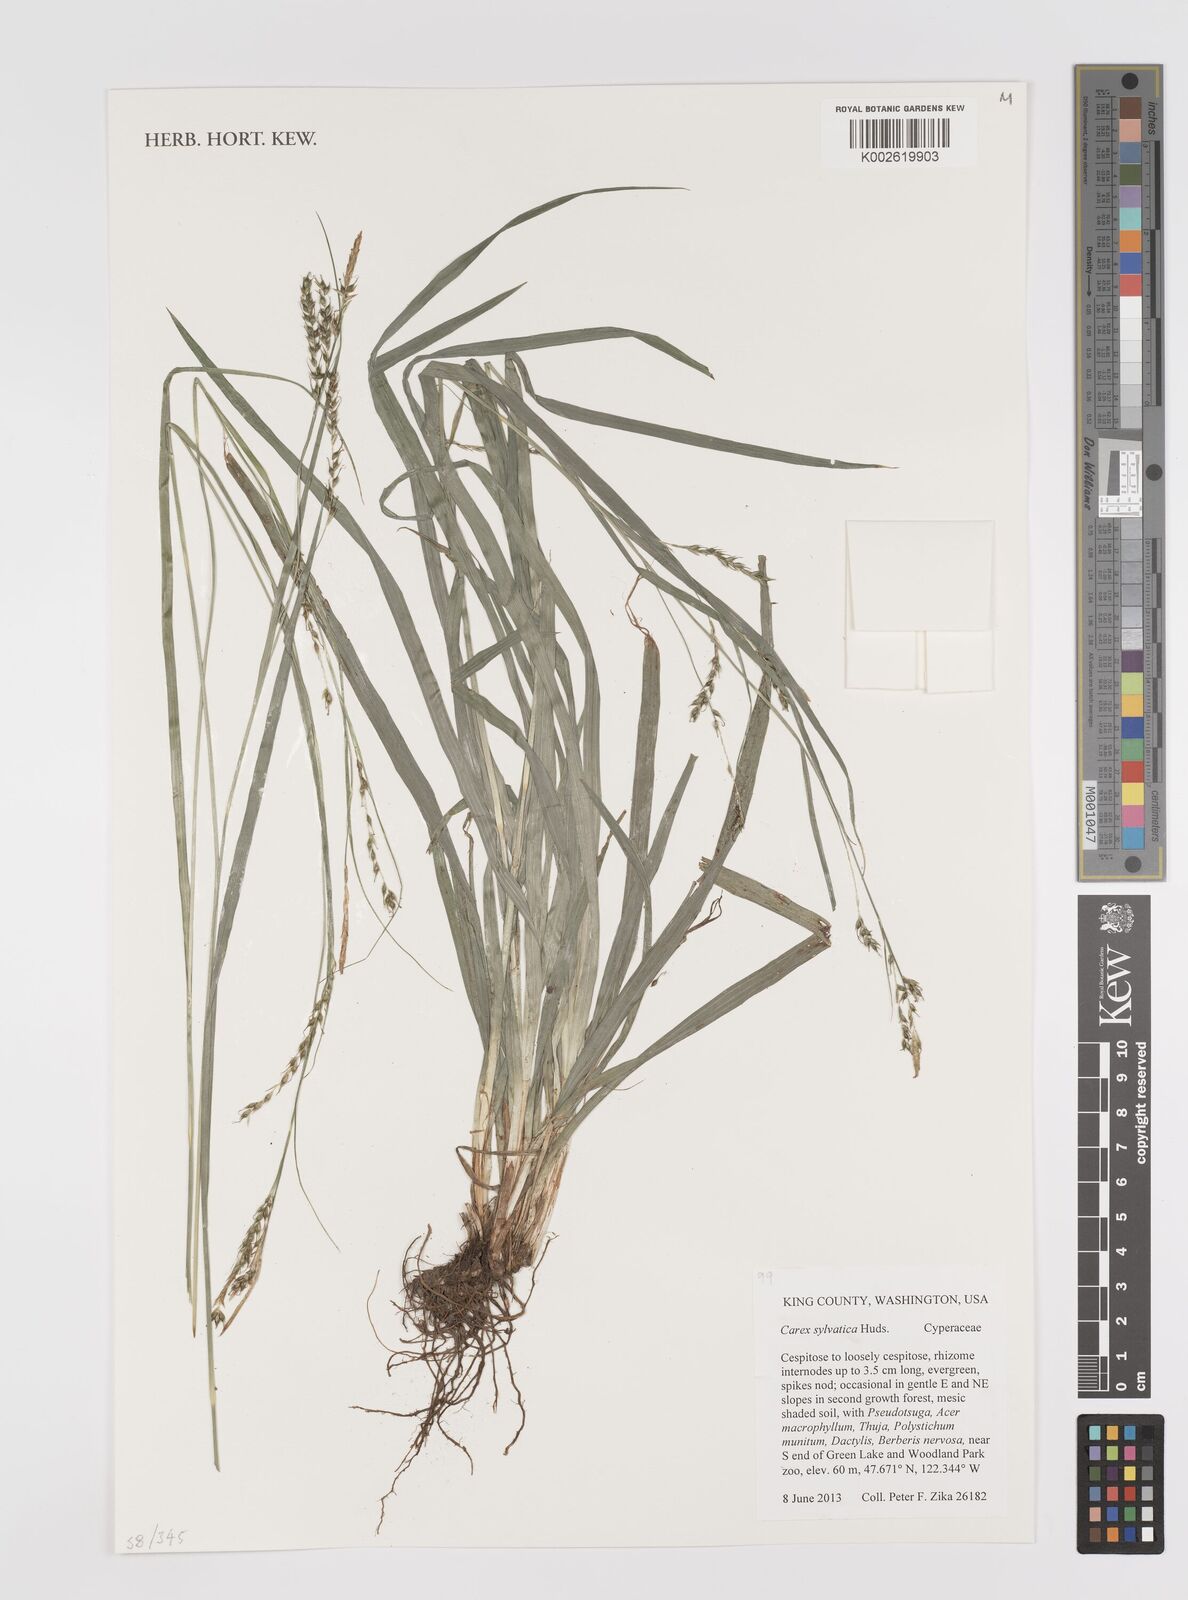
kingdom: Plantae
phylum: Tracheophyta
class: Liliopsida
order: Poales
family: Cyperaceae
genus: Carex
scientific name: Carex sylvatica
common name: Wood-sedge
